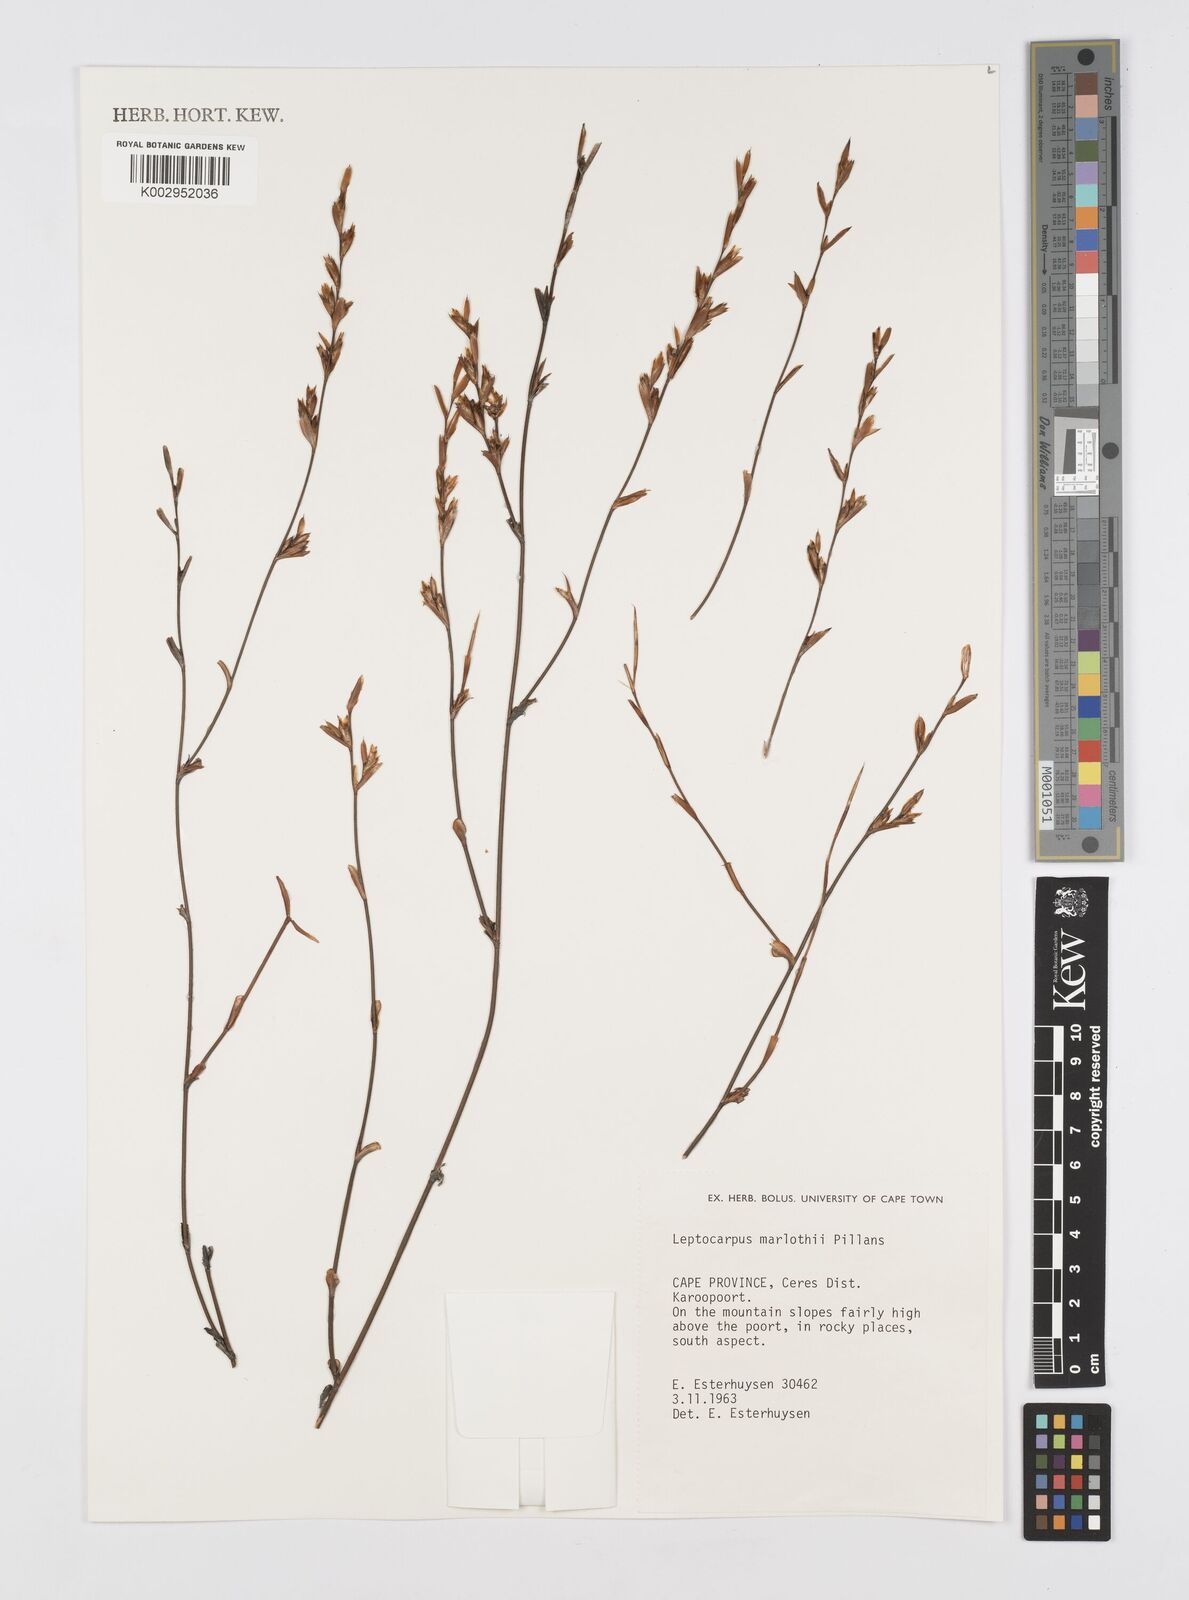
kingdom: Plantae
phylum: Tracheophyta
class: Liliopsida
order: Poales
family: Restionaceae
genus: Restio
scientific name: Restio marlothii
